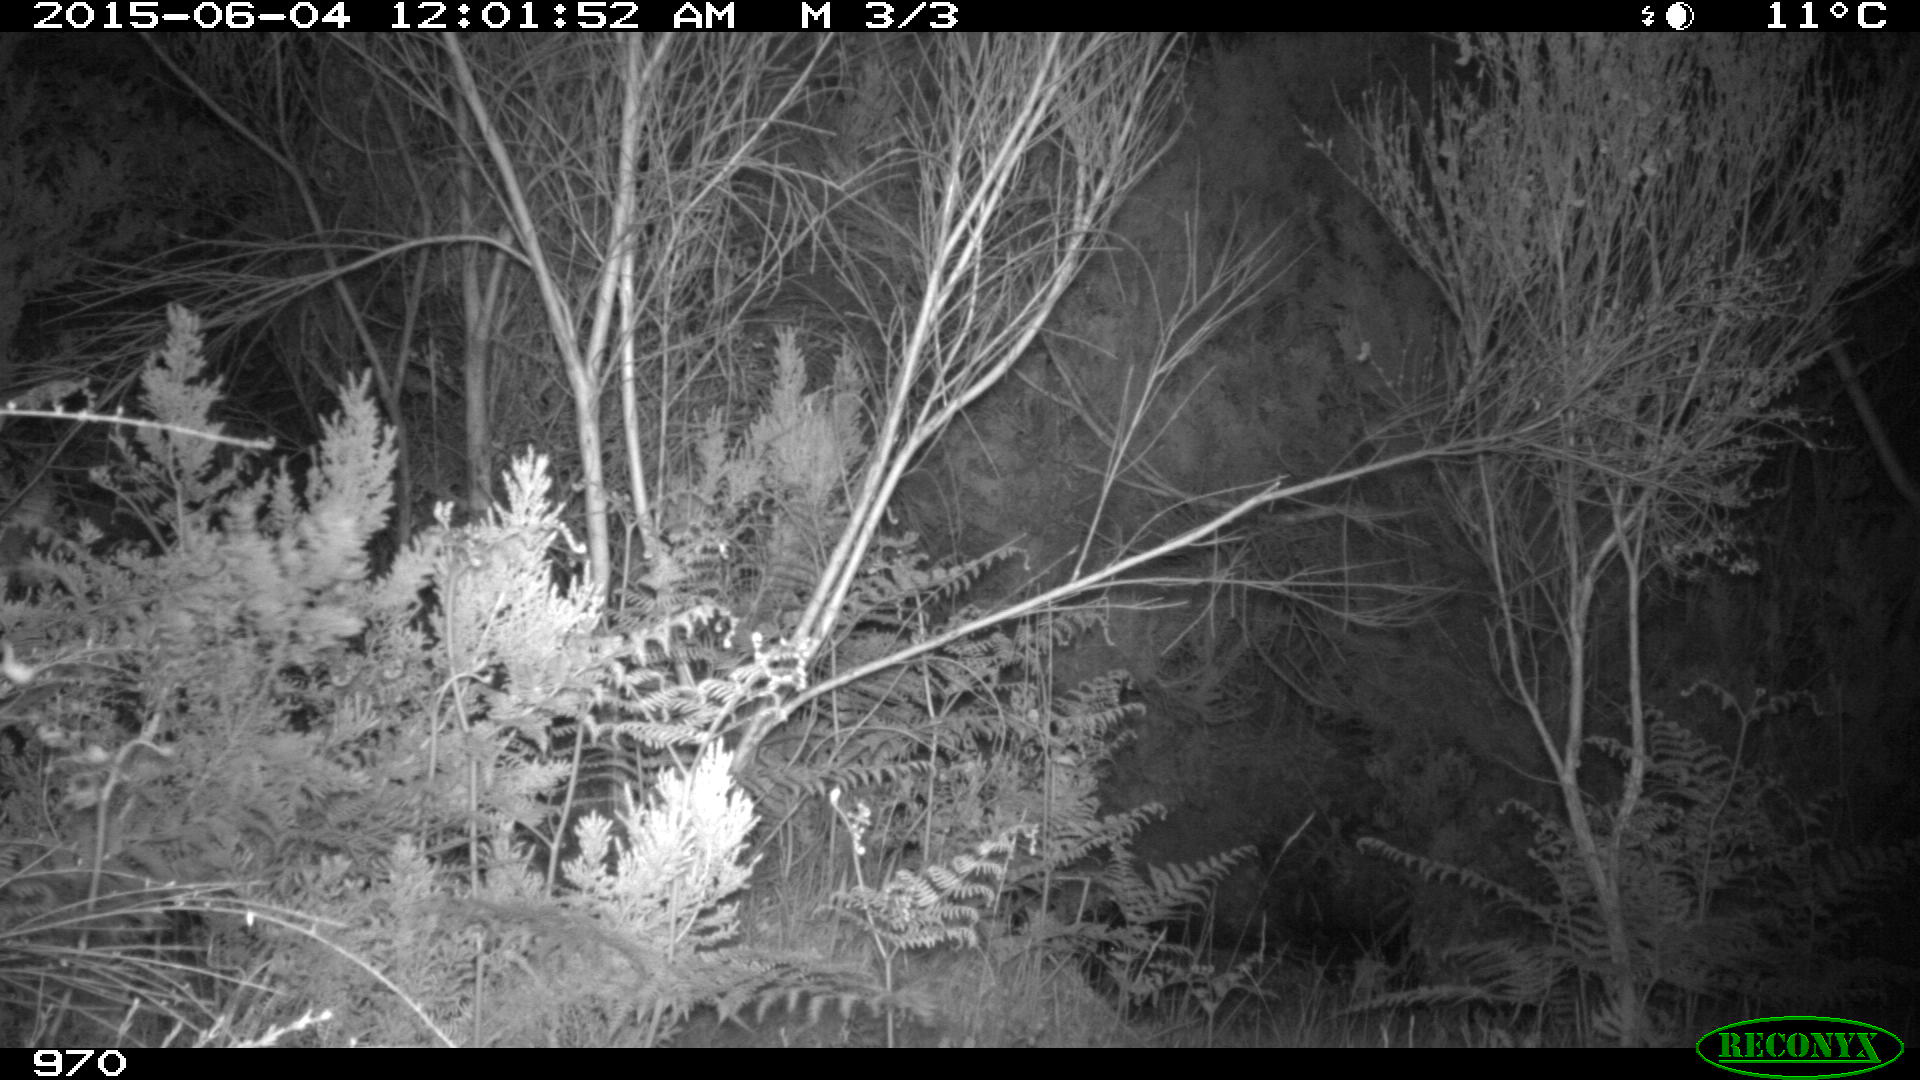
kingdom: Animalia
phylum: Chordata
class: Mammalia
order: Artiodactyla
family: Cervidae
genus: Capreolus
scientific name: Capreolus capreolus
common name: Western roe deer
